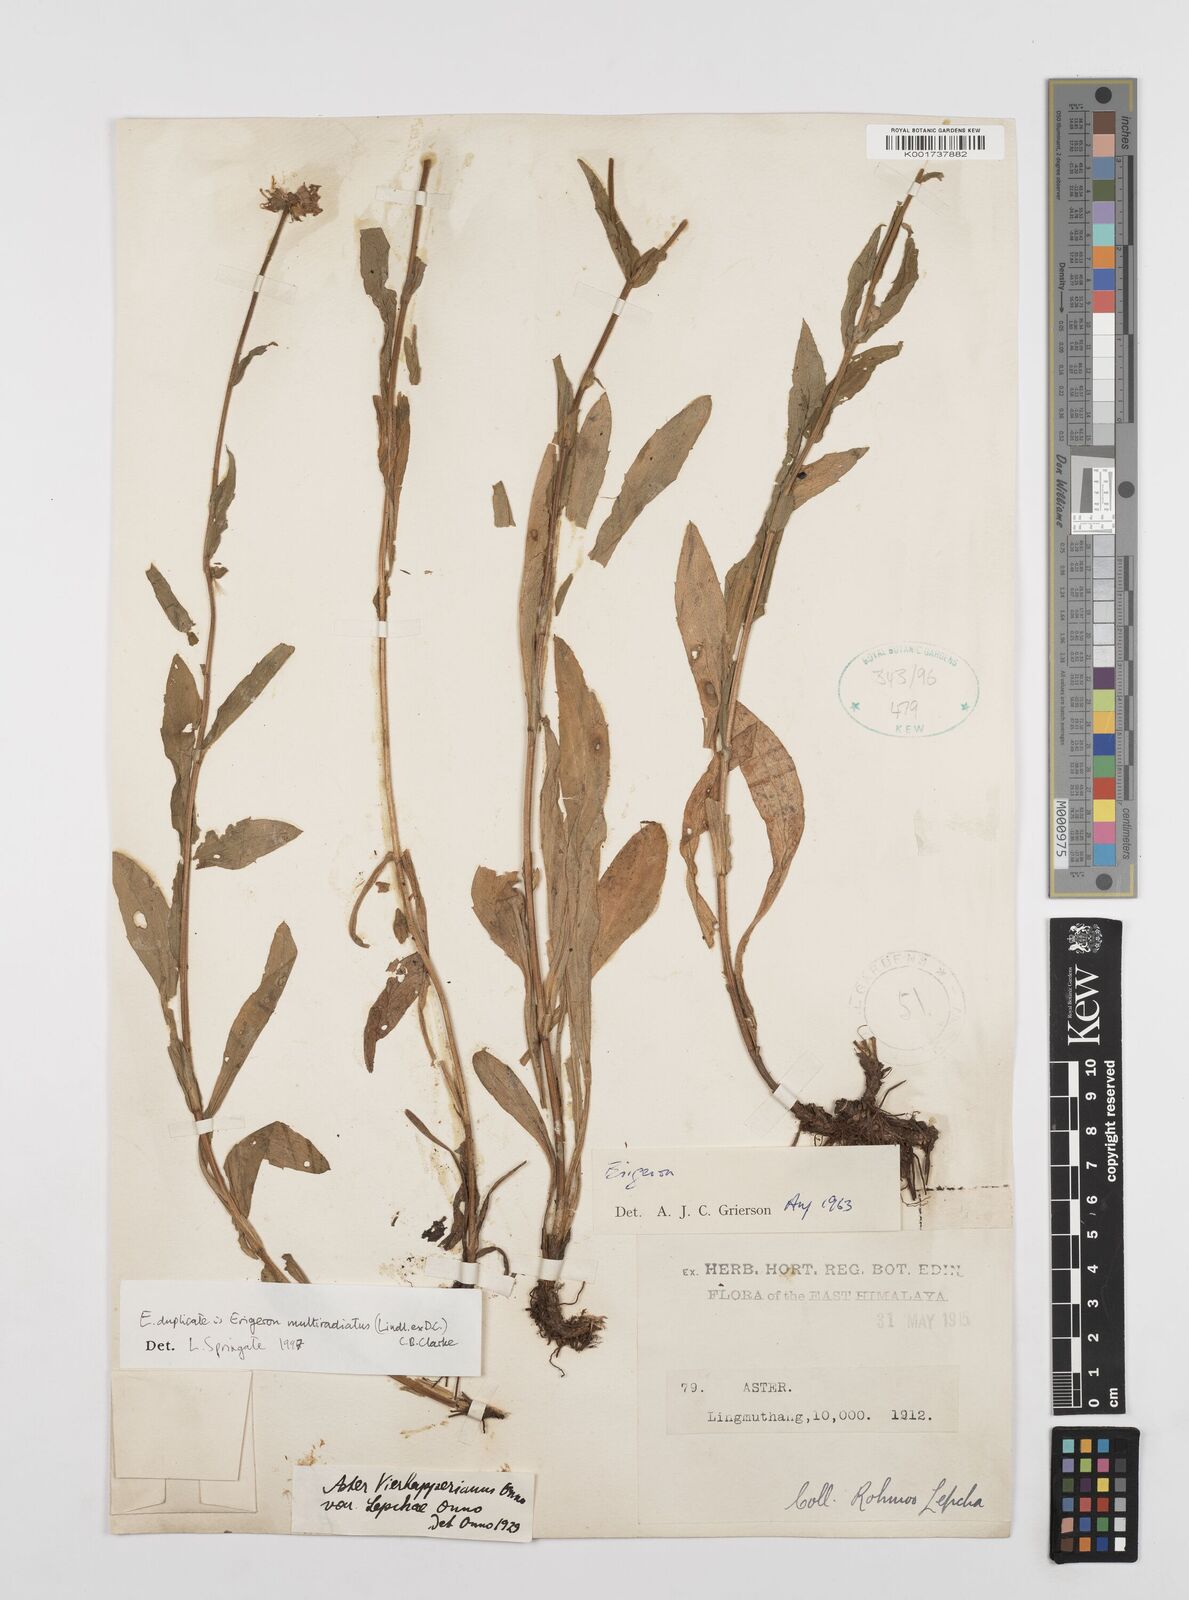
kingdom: Plantae
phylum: Tracheophyta
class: Magnoliopsida
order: Asterales
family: Asteraceae
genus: Erigeron
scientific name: Erigeron multiradiatus
